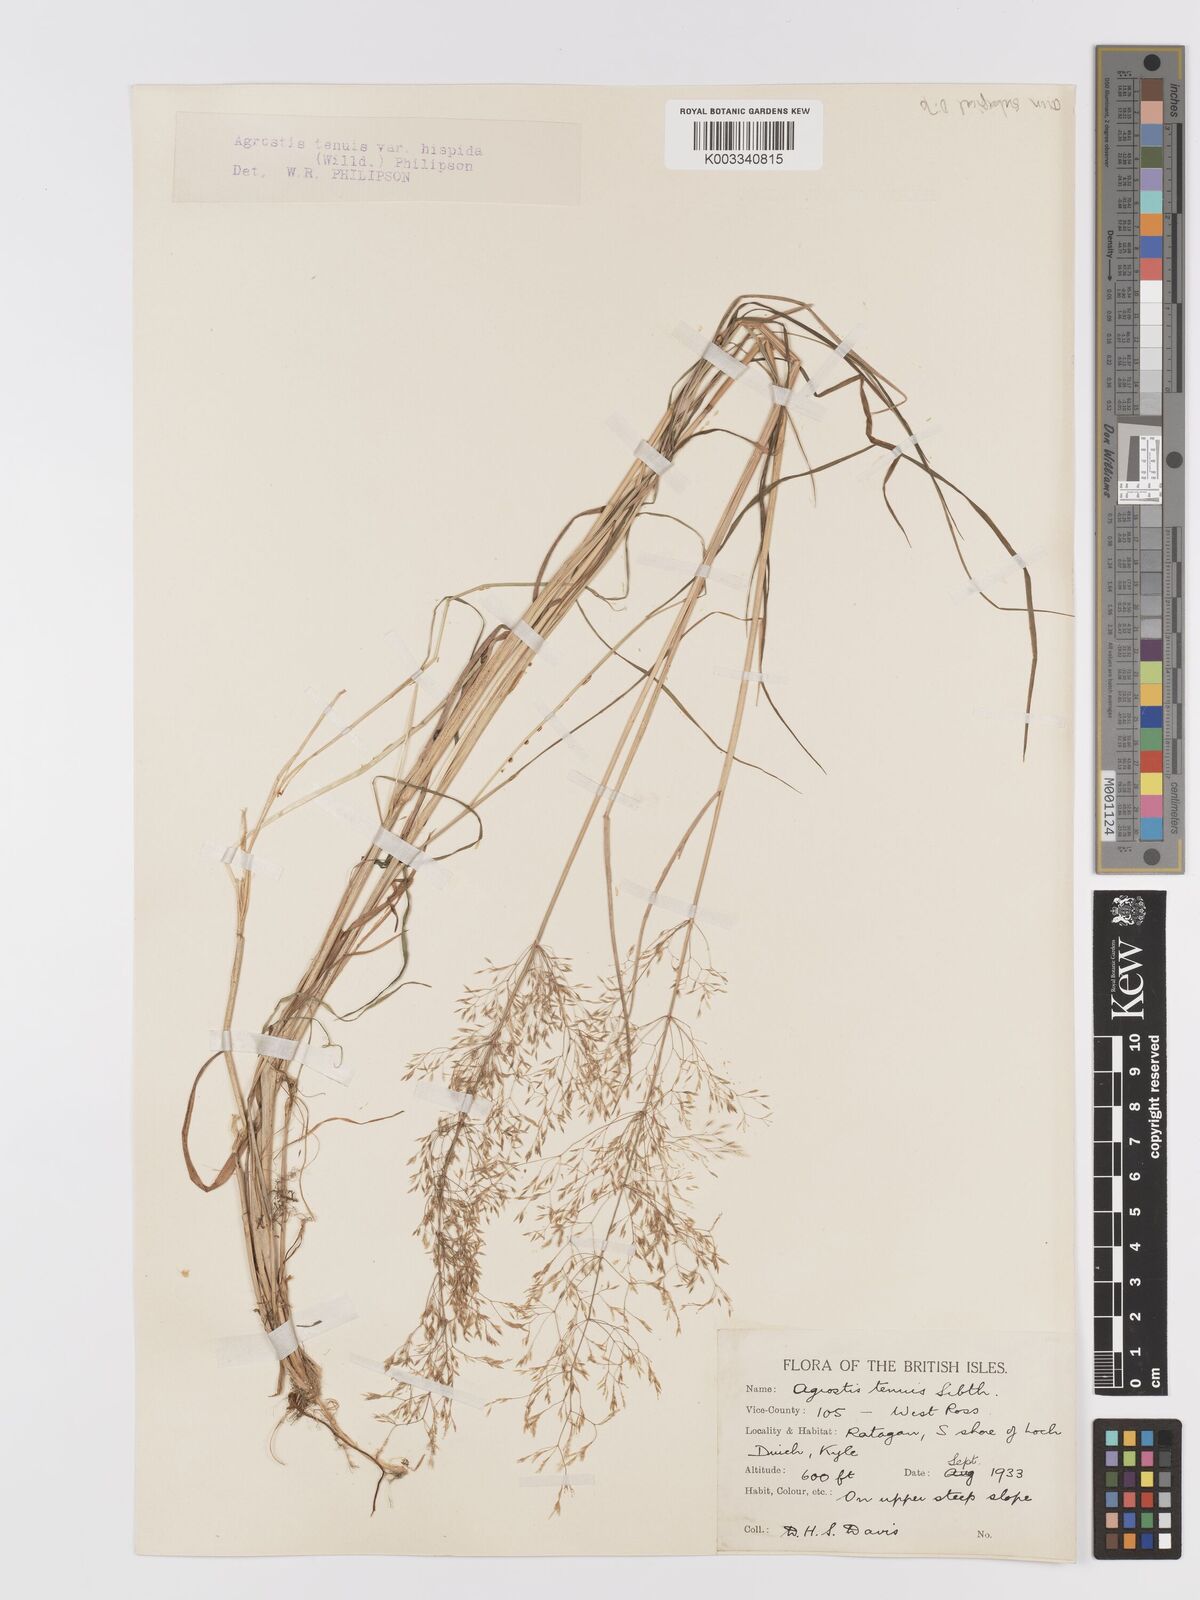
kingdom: Plantae
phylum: Tracheophyta
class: Liliopsida
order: Poales
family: Poaceae
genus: Agrostis
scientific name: Agrostis capillaris
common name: Colonial bentgrass
